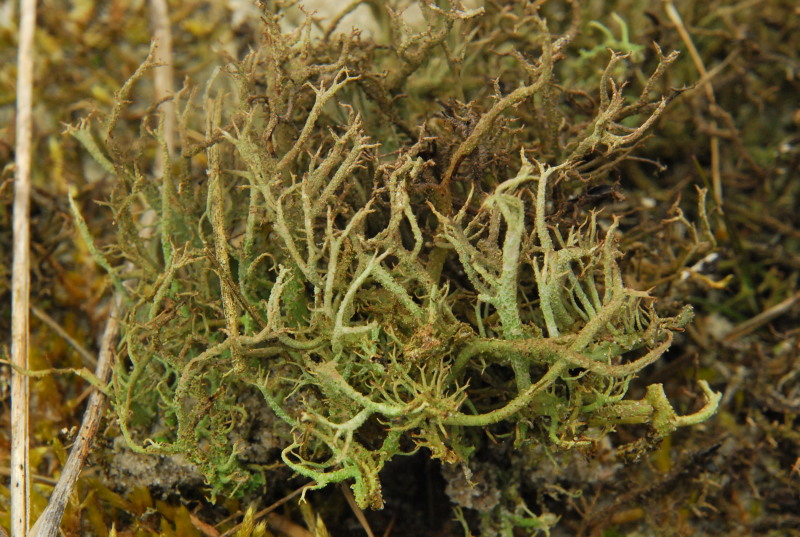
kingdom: Fungi
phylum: Ascomycota
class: Lecanoromycetes
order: Lecanorales
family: Cladoniaceae
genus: Cladonia
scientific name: Cladonia furcata
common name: kløftet bægerlav
